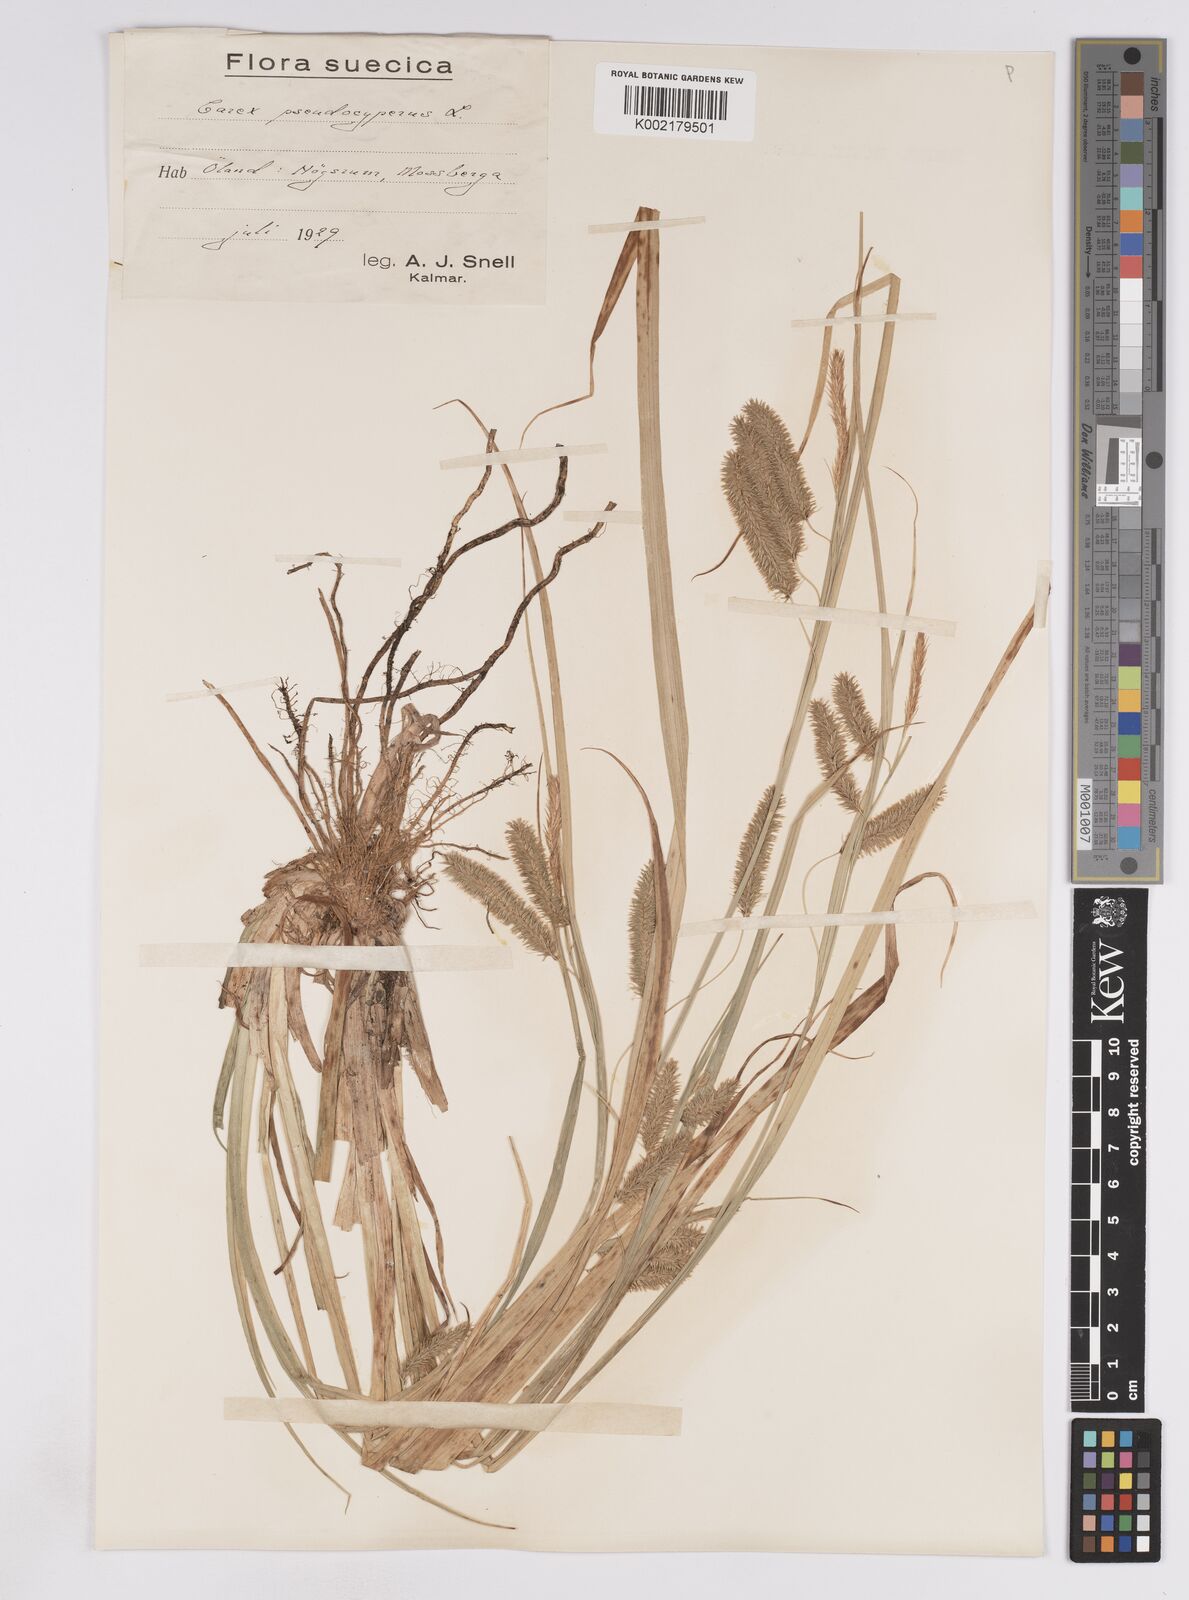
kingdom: Plantae
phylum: Tracheophyta
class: Liliopsida
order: Poales
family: Cyperaceae
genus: Carex
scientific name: Carex pseudocyperus
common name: Cyperus sedge
